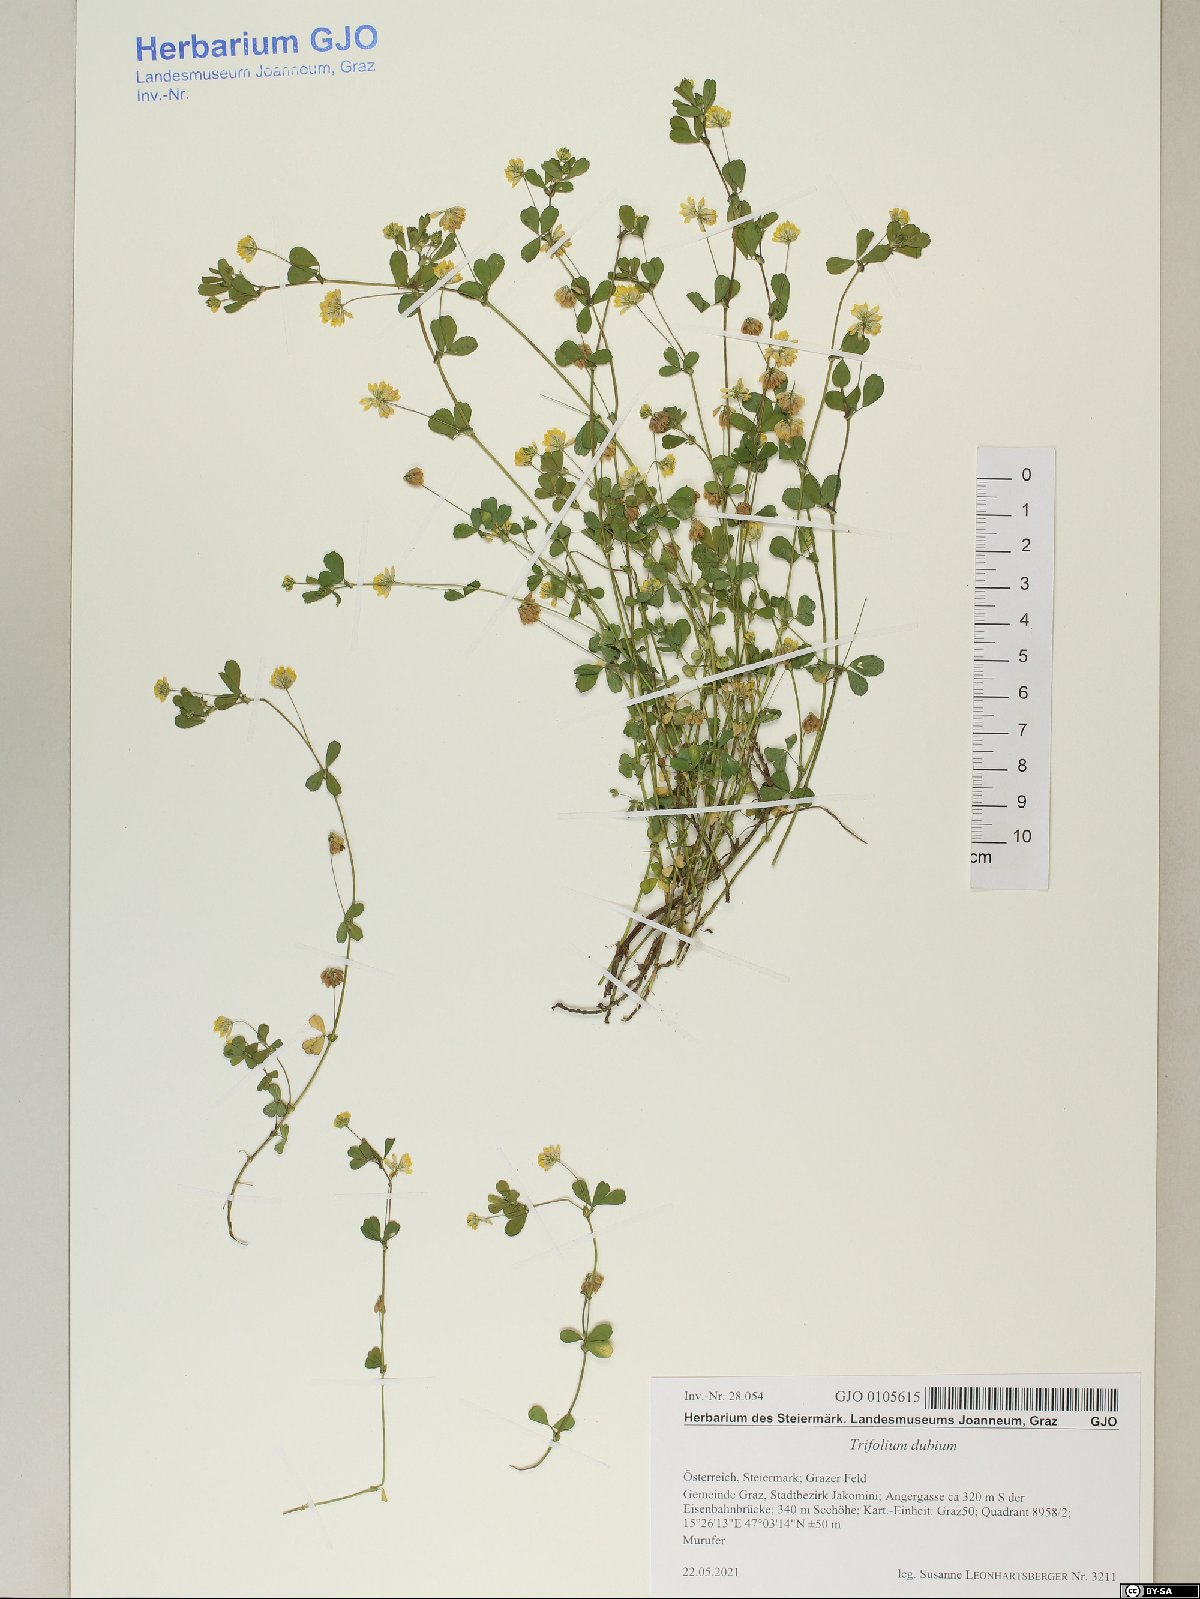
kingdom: Plantae
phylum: Tracheophyta
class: Magnoliopsida
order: Fabales
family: Fabaceae
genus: Trifolium
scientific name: Trifolium dubium
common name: Suckling clover
